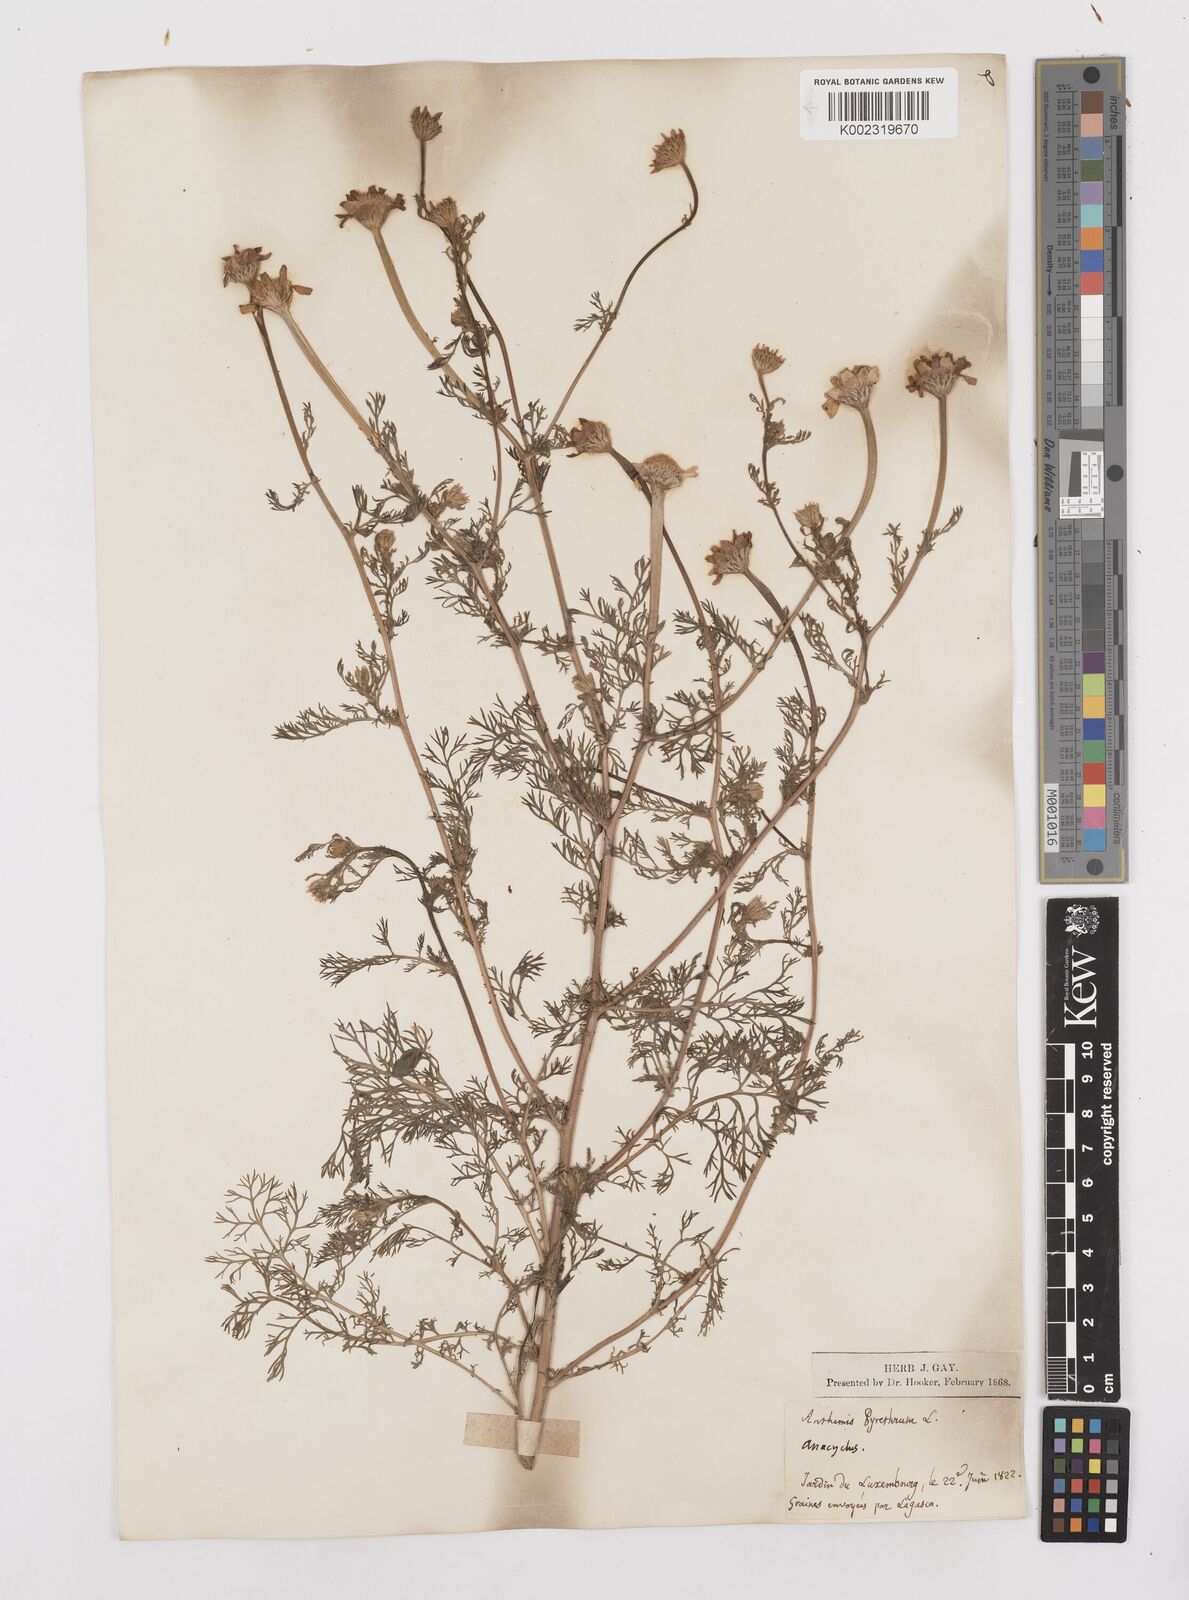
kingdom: Plantae
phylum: Tracheophyta
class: Magnoliopsida
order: Asterales
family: Asteraceae
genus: Anacyclus
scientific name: Anacyclus pyrethrum
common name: Mt. atlas daisy
